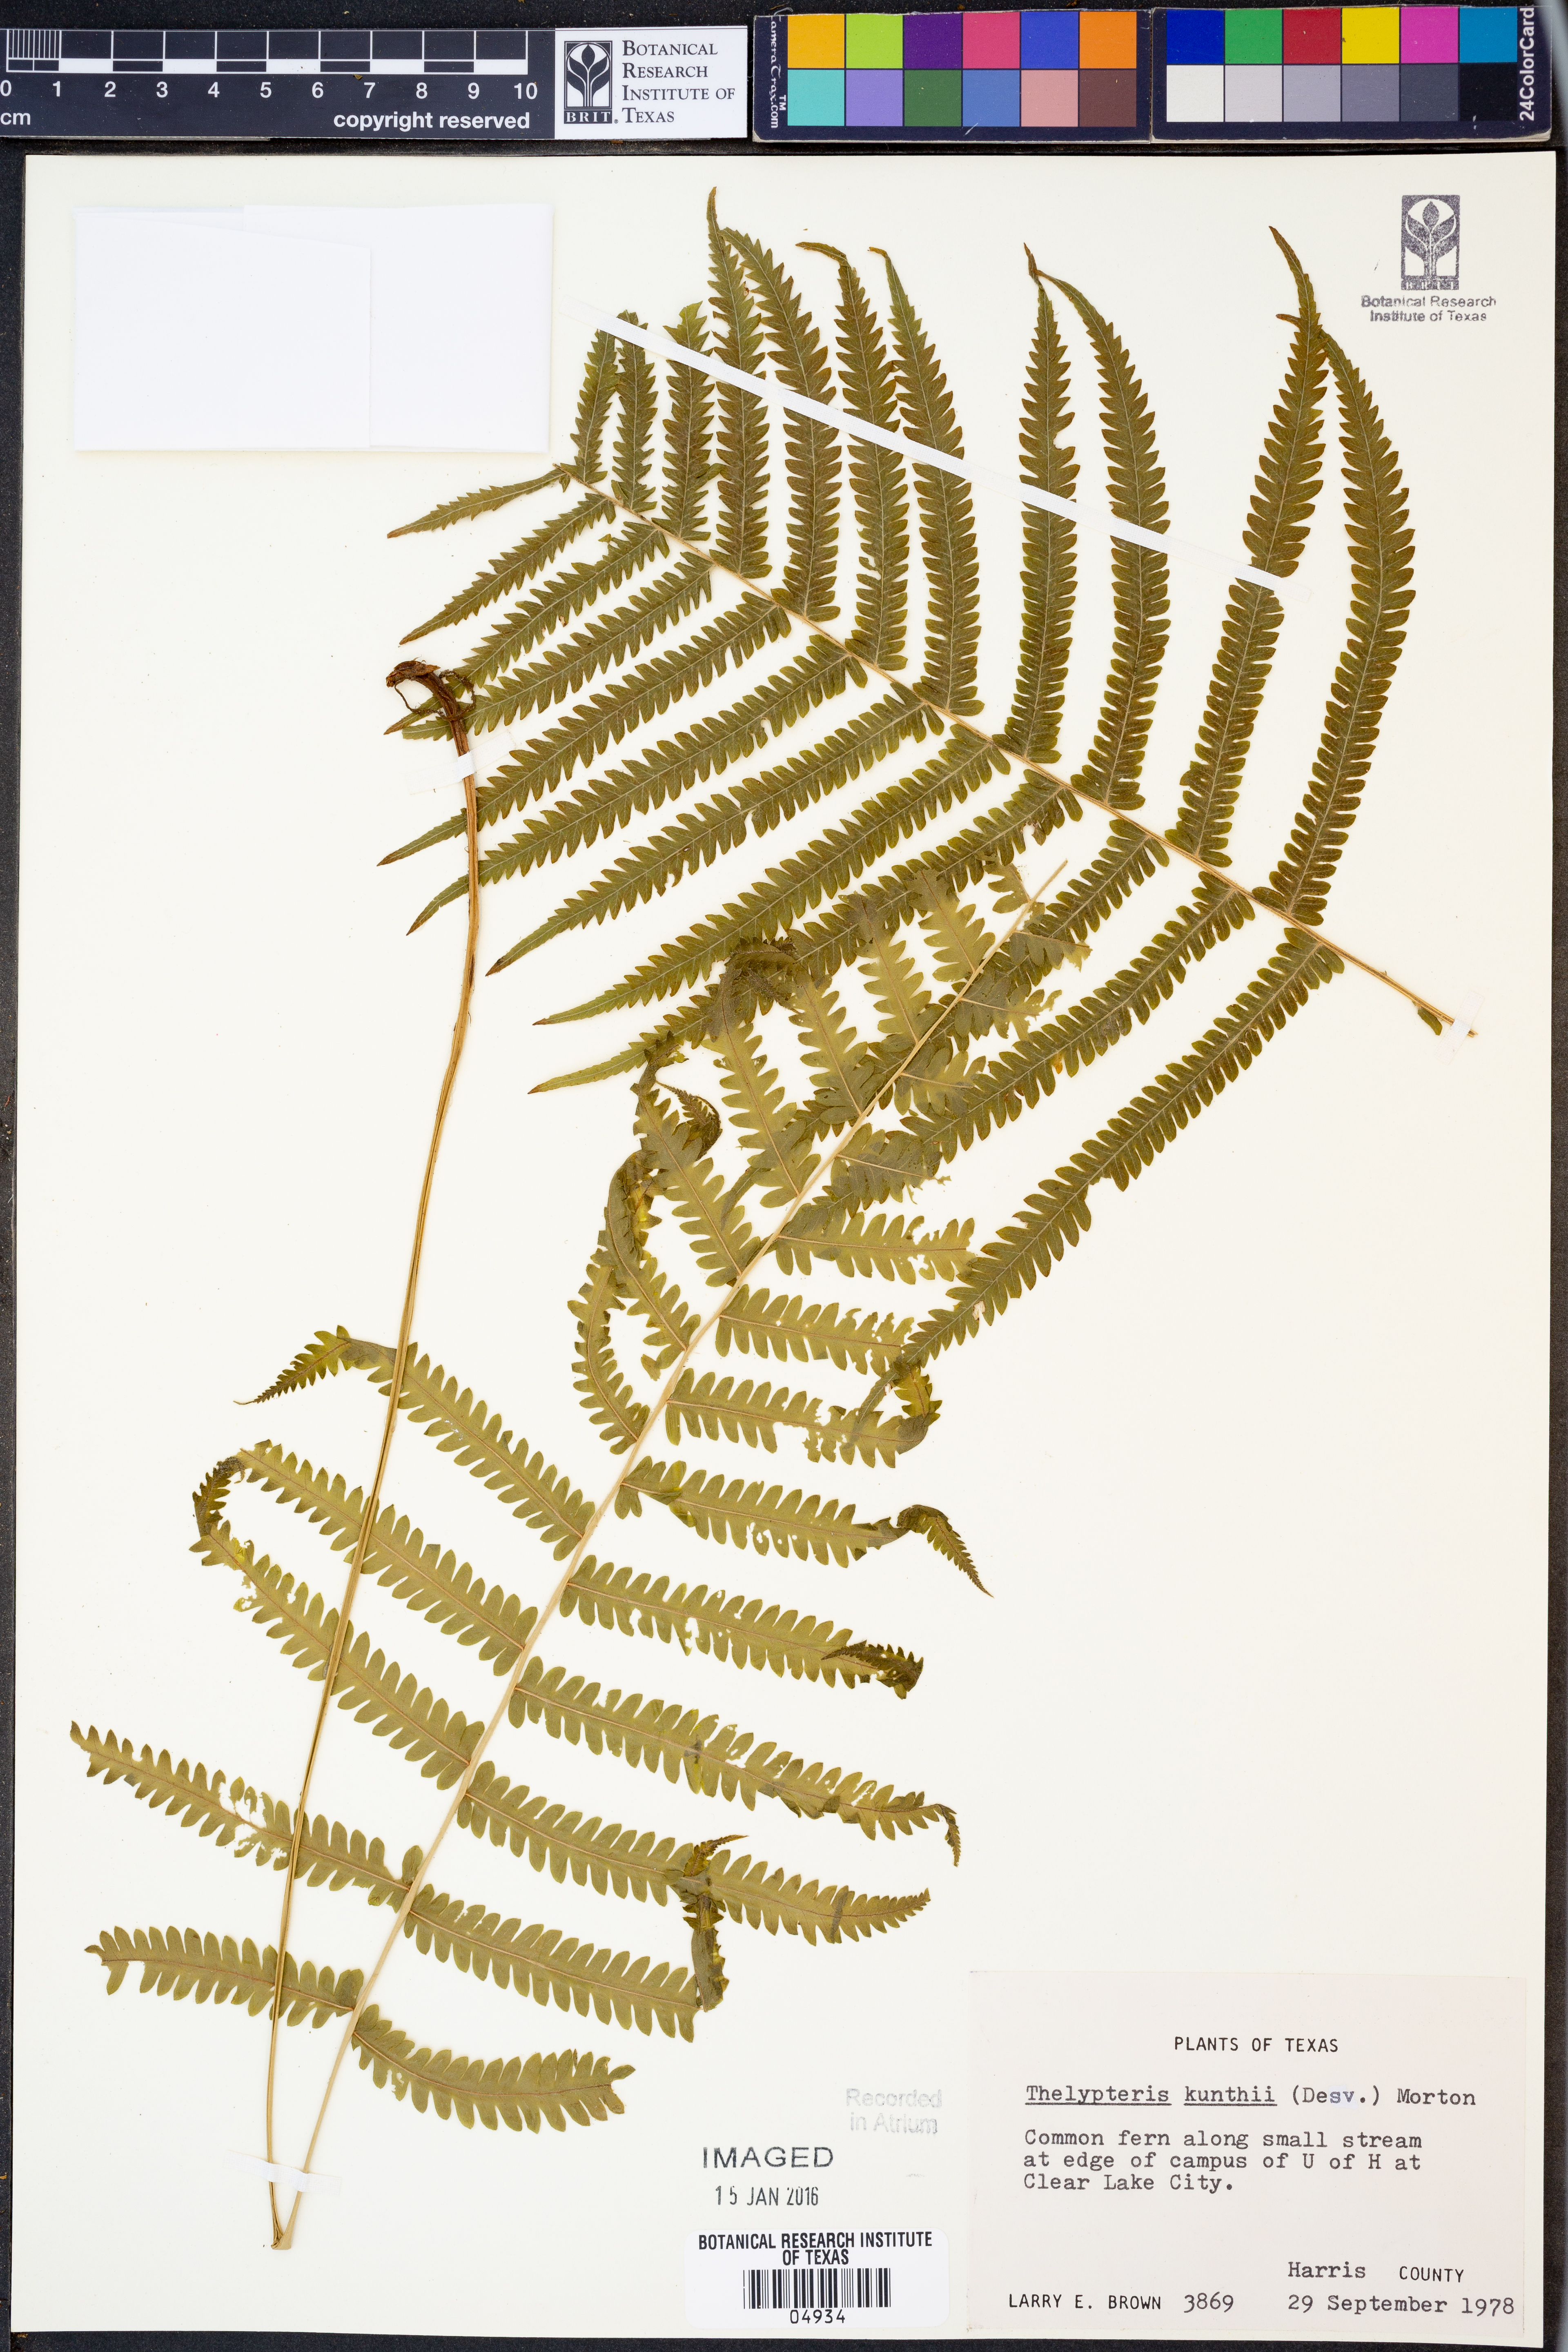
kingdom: Plantae
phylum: Tracheophyta
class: Polypodiopsida
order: Polypodiales
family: Thelypteridaceae
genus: Pelazoneuron
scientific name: Pelazoneuron kunthii
